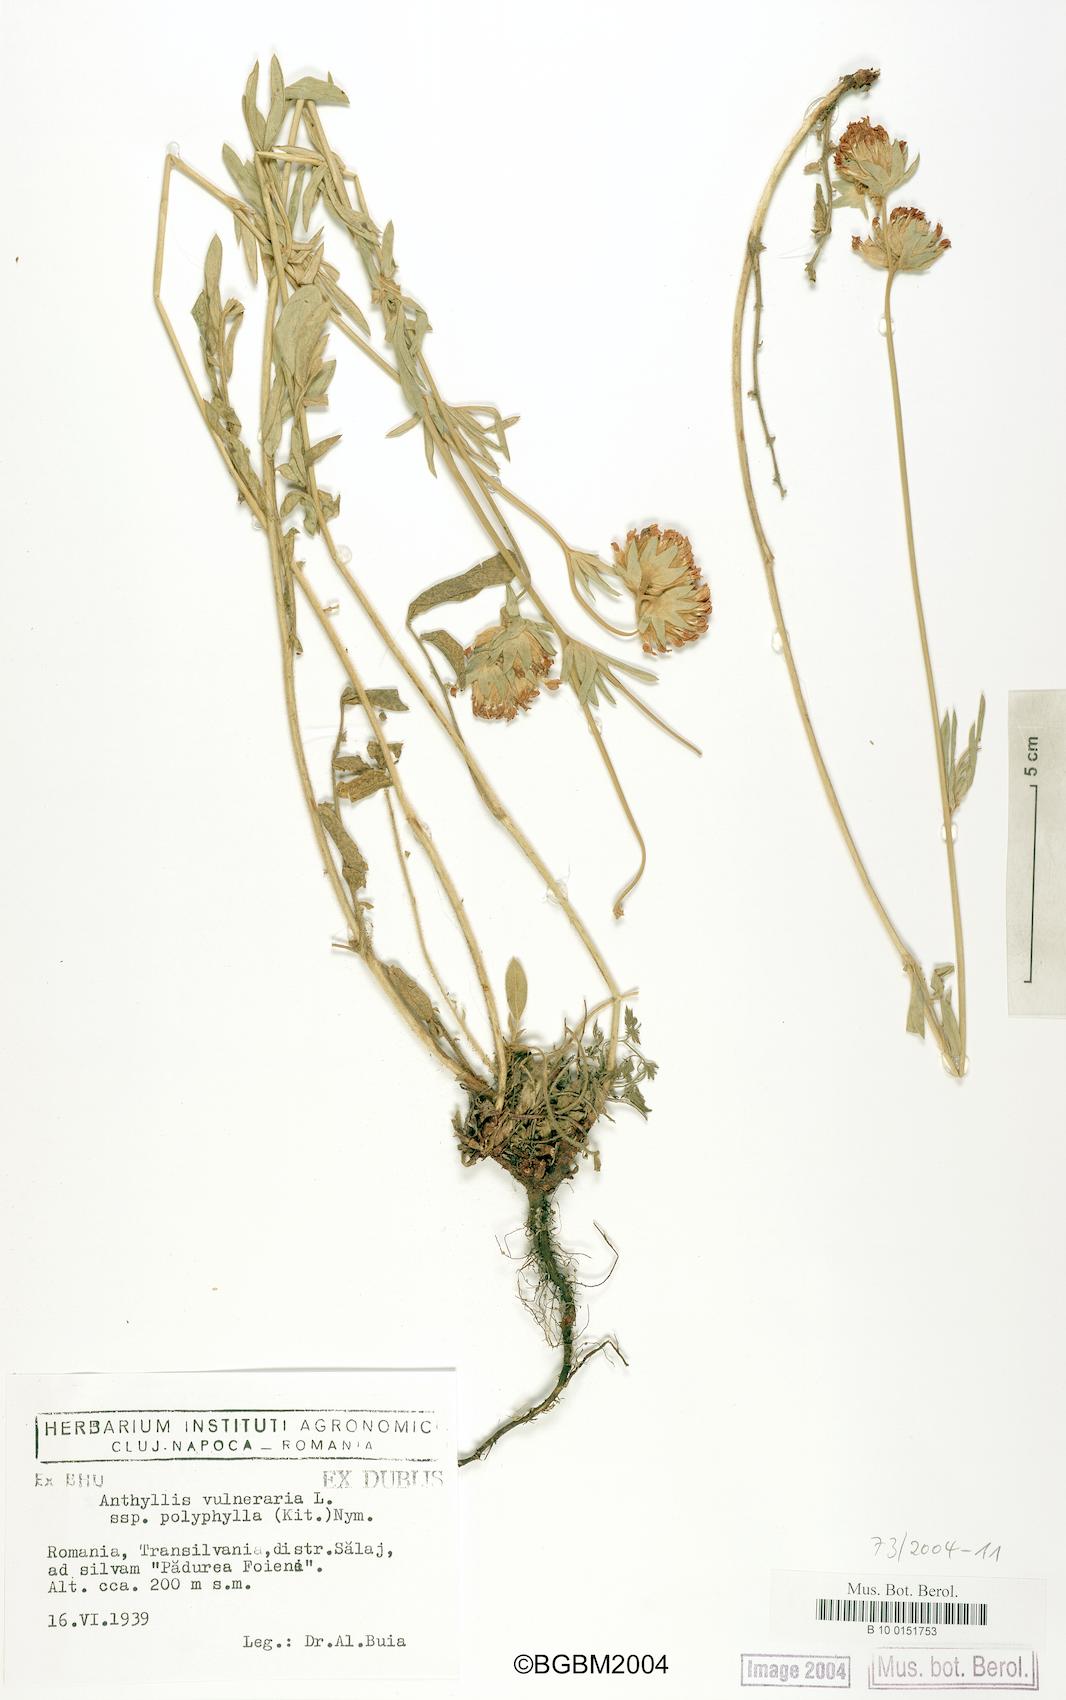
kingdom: Plantae
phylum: Tracheophyta
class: Magnoliopsida
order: Fabales
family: Fabaceae
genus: Anthyllis
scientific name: Anthyllis vulneraria
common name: Kidney vetch
